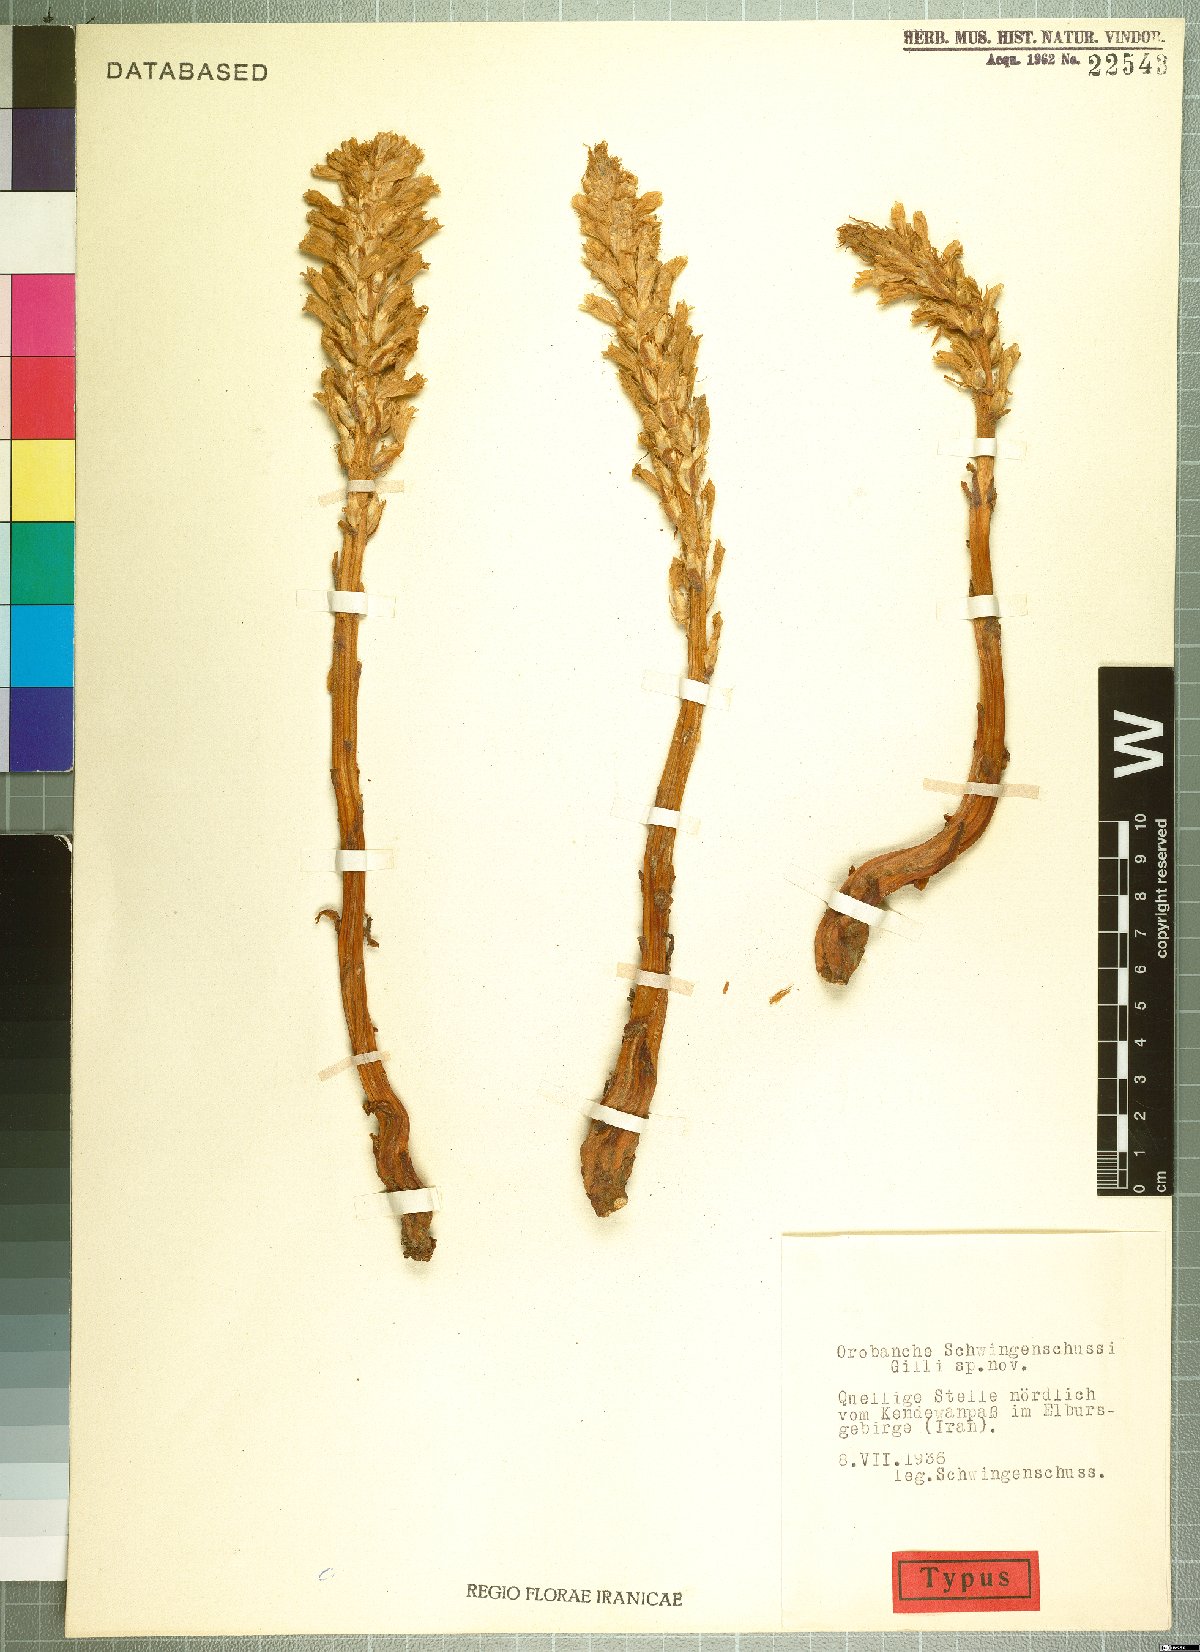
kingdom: Plantae
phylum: Tracheophyta
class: Magnoliopsida
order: Lamiales
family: Orobanchaceae
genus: Phelipanche
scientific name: Phelipanche schultzii
